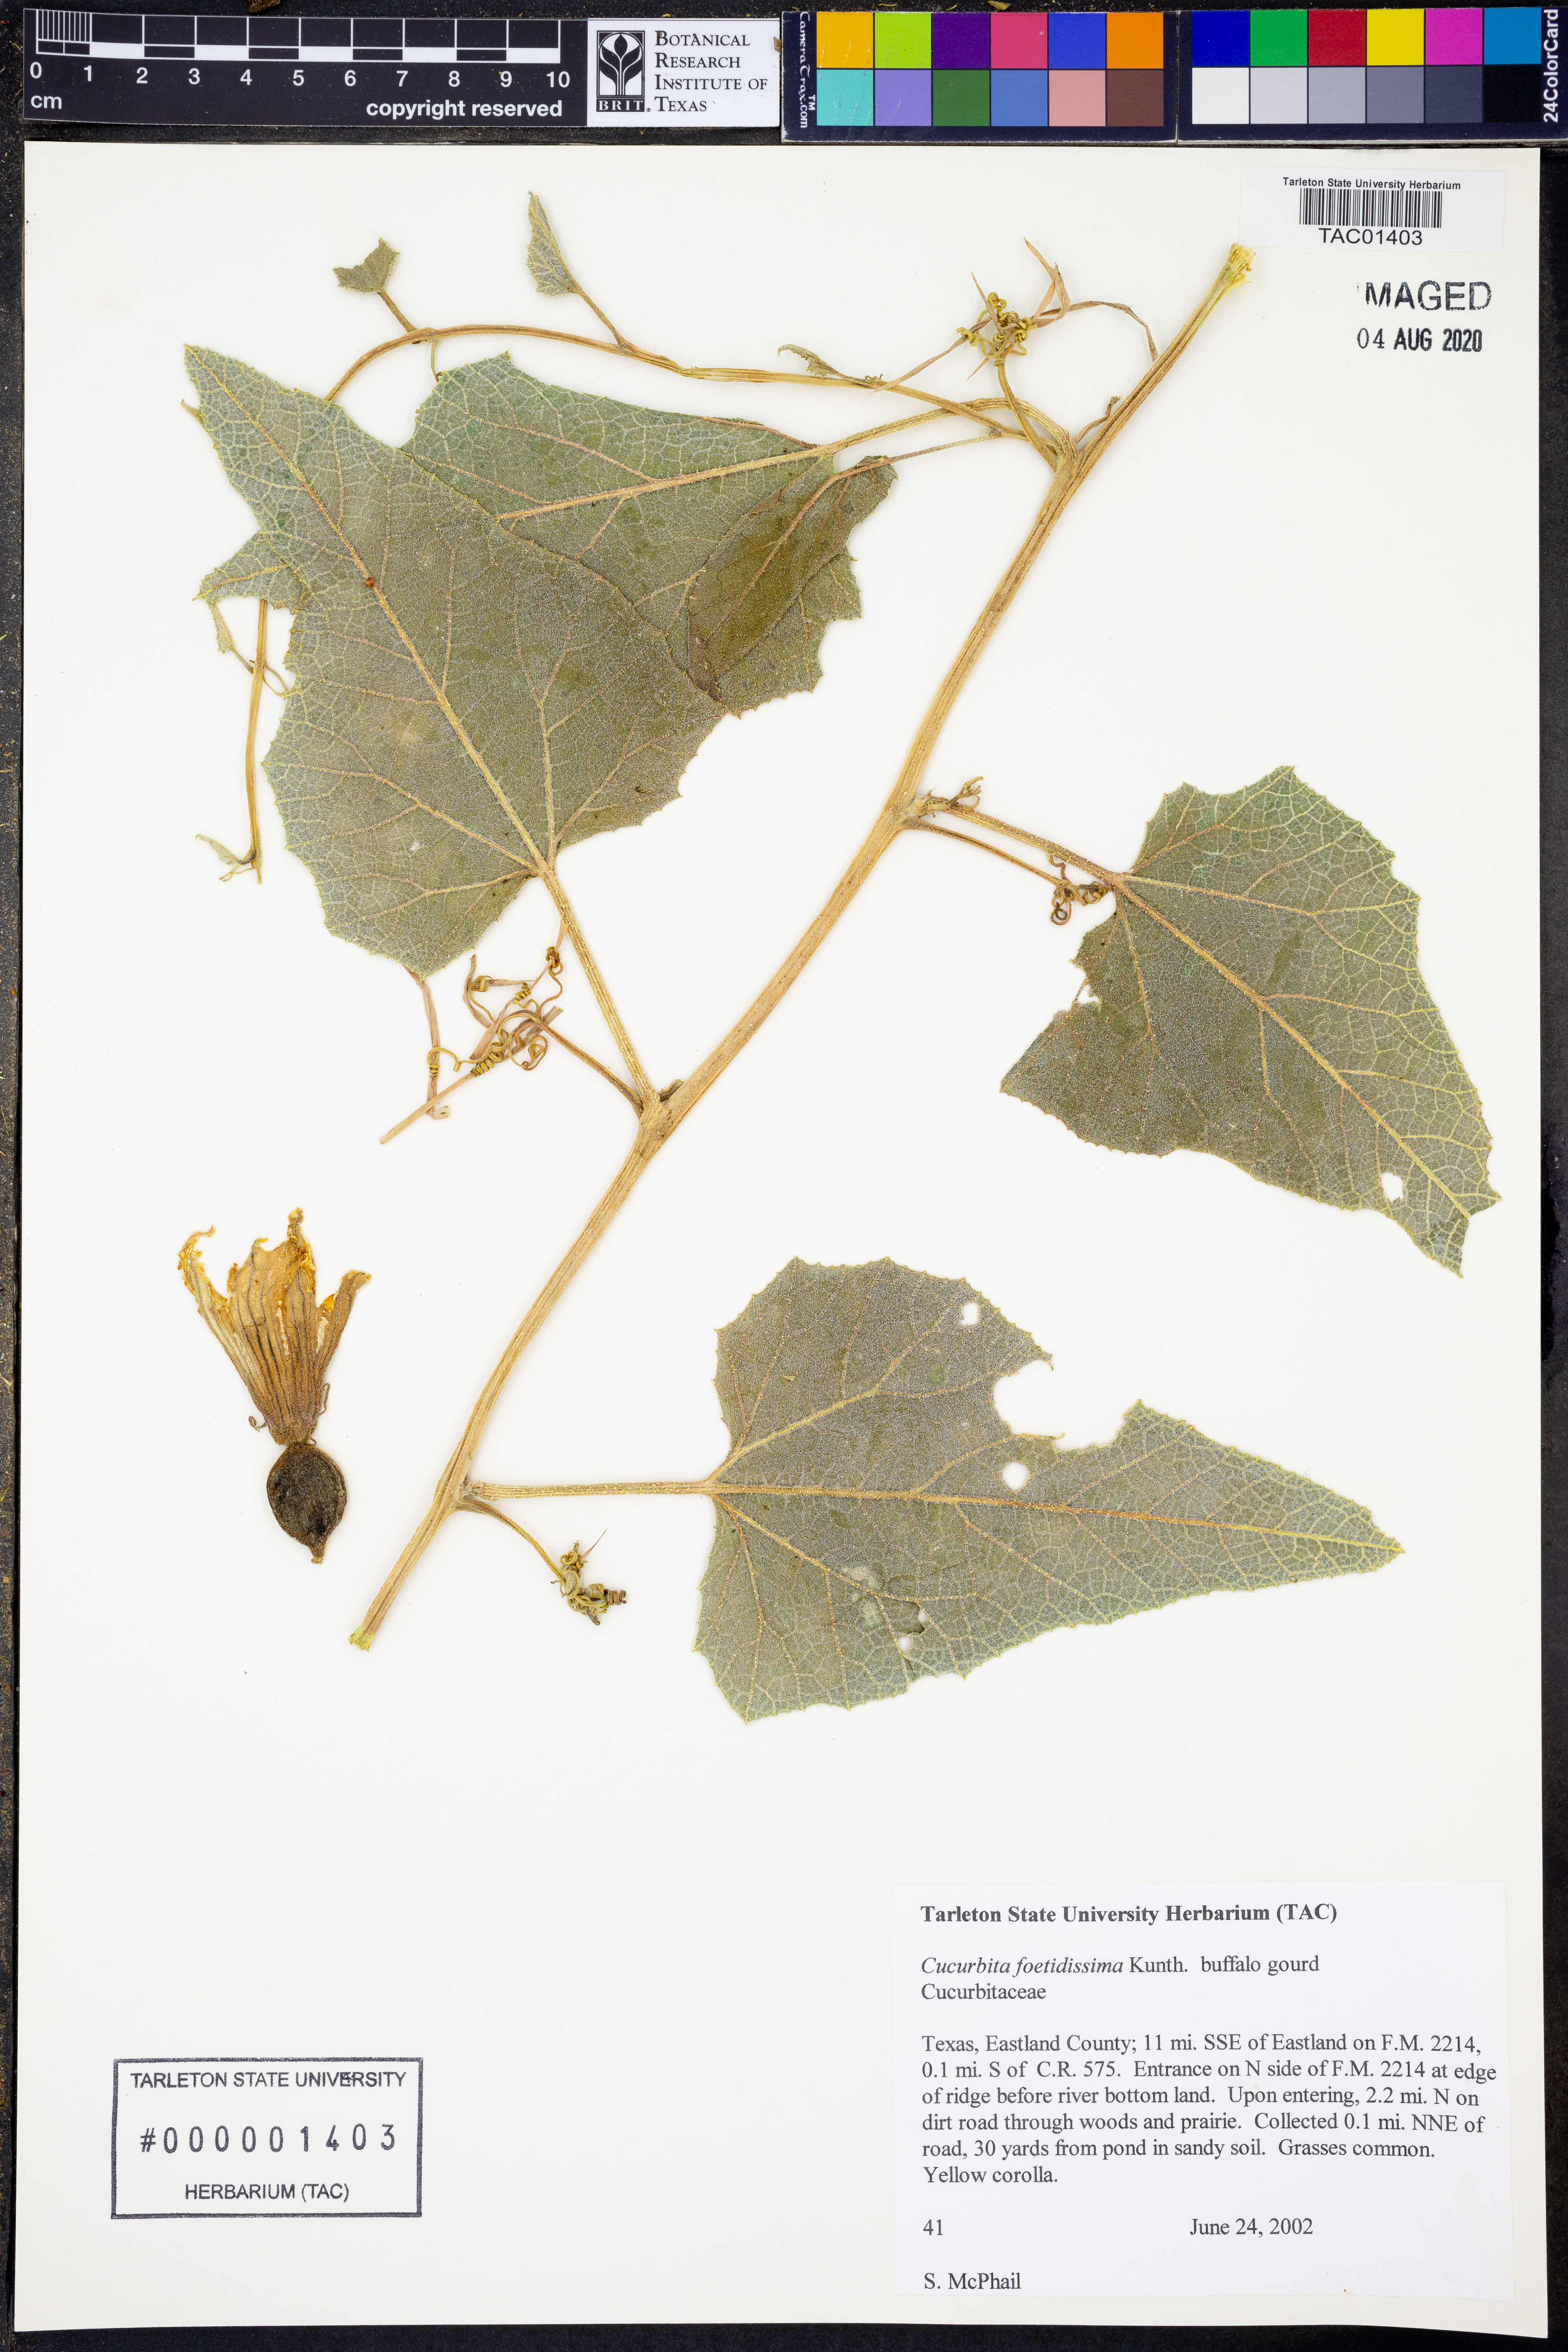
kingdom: Plantae
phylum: Tracheophyta
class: Magnoliopsida
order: Cucurbitales
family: Cucurbitaceae
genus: Cucurbita
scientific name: Cucurbita foetidissima
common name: Buffalo gourd
